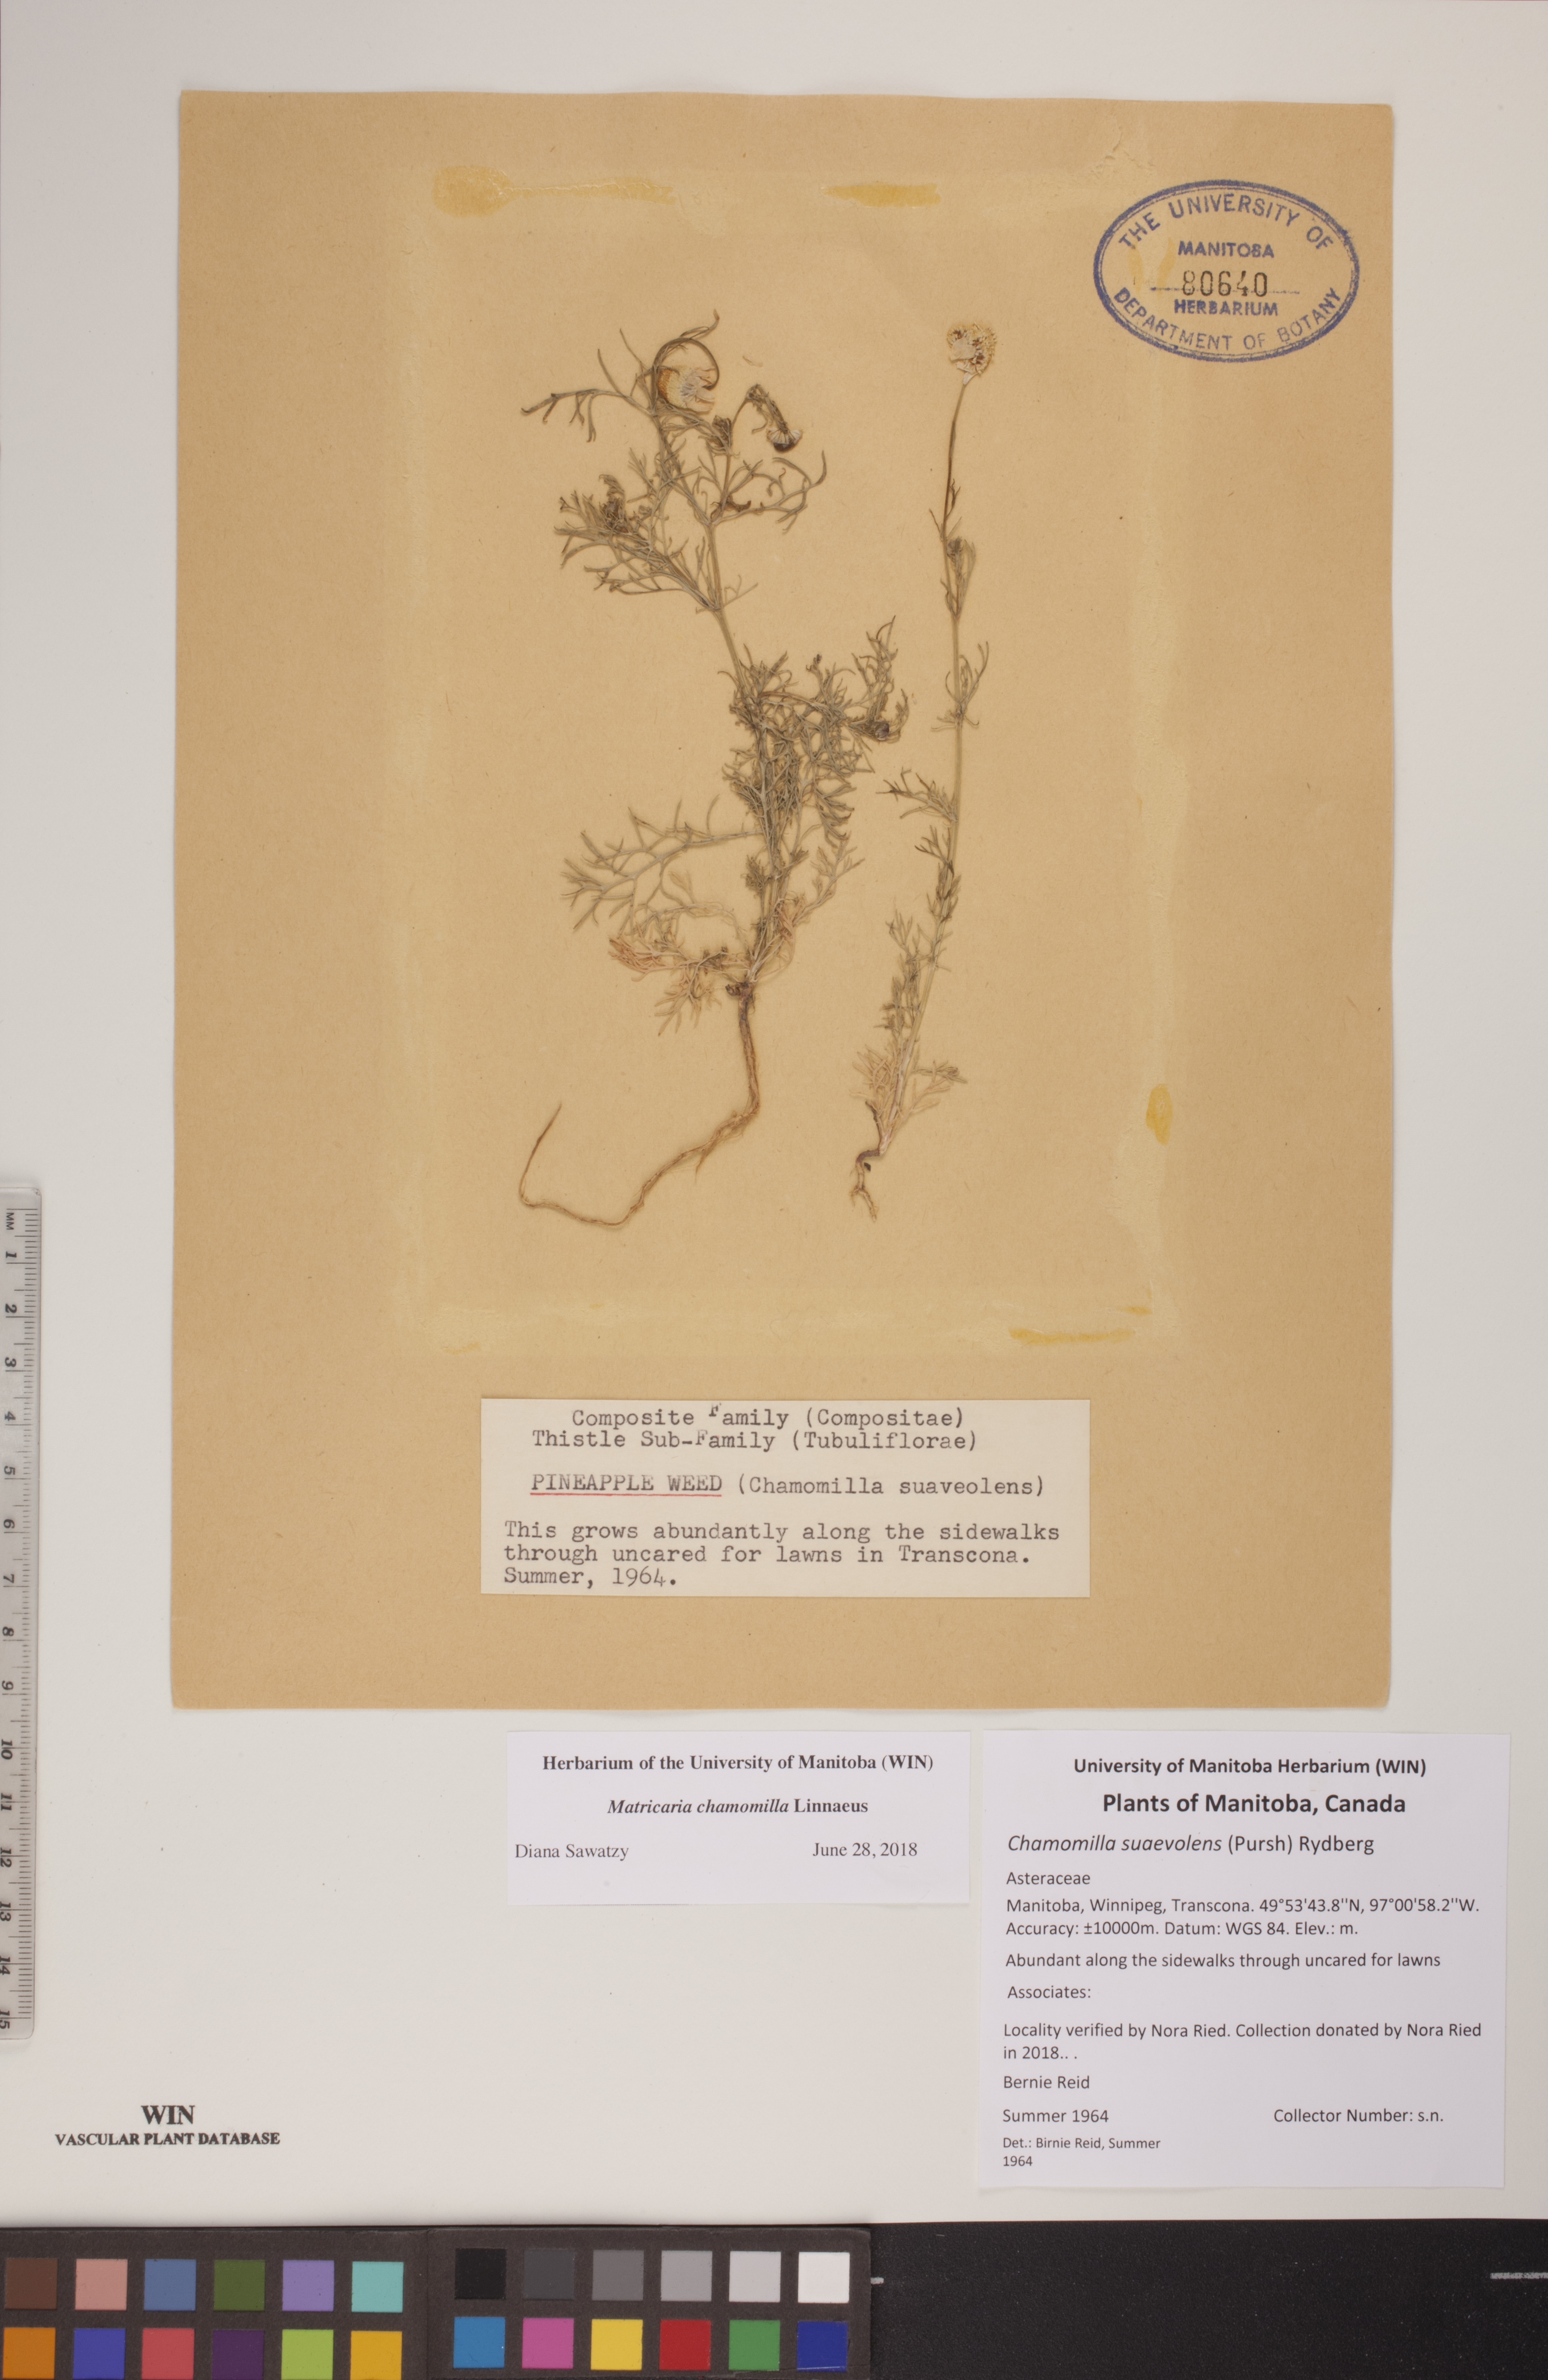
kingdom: Plantae
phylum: Tracheophyta
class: Magnoliopsida
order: Asterales
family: Asteraceae
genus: Matricaria
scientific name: Matricaria chamomilla
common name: Scented mayweed
